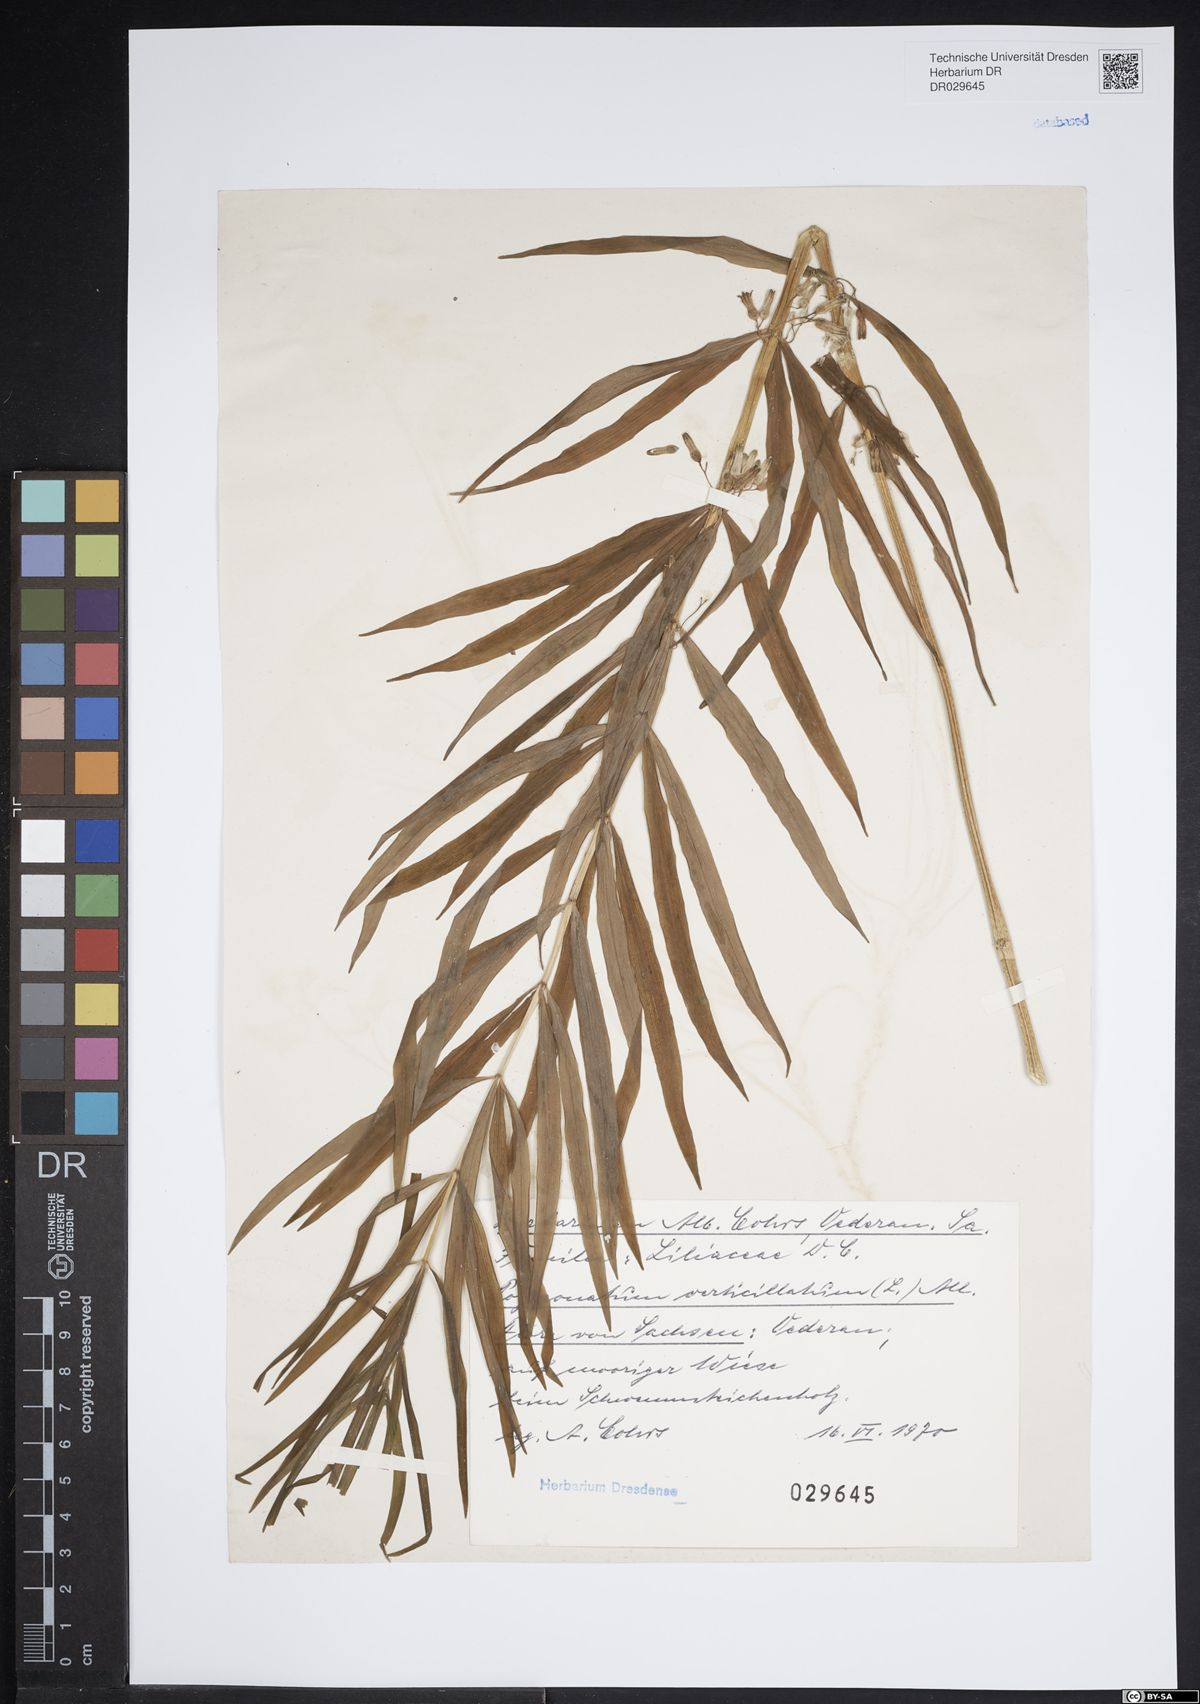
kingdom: Plantae
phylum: Tracheophyta
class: Liliopsida
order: Asparagales
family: Asparagaceae
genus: Polygonatum
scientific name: Polygonatum verticillatum
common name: Whorled solomon's-seal
